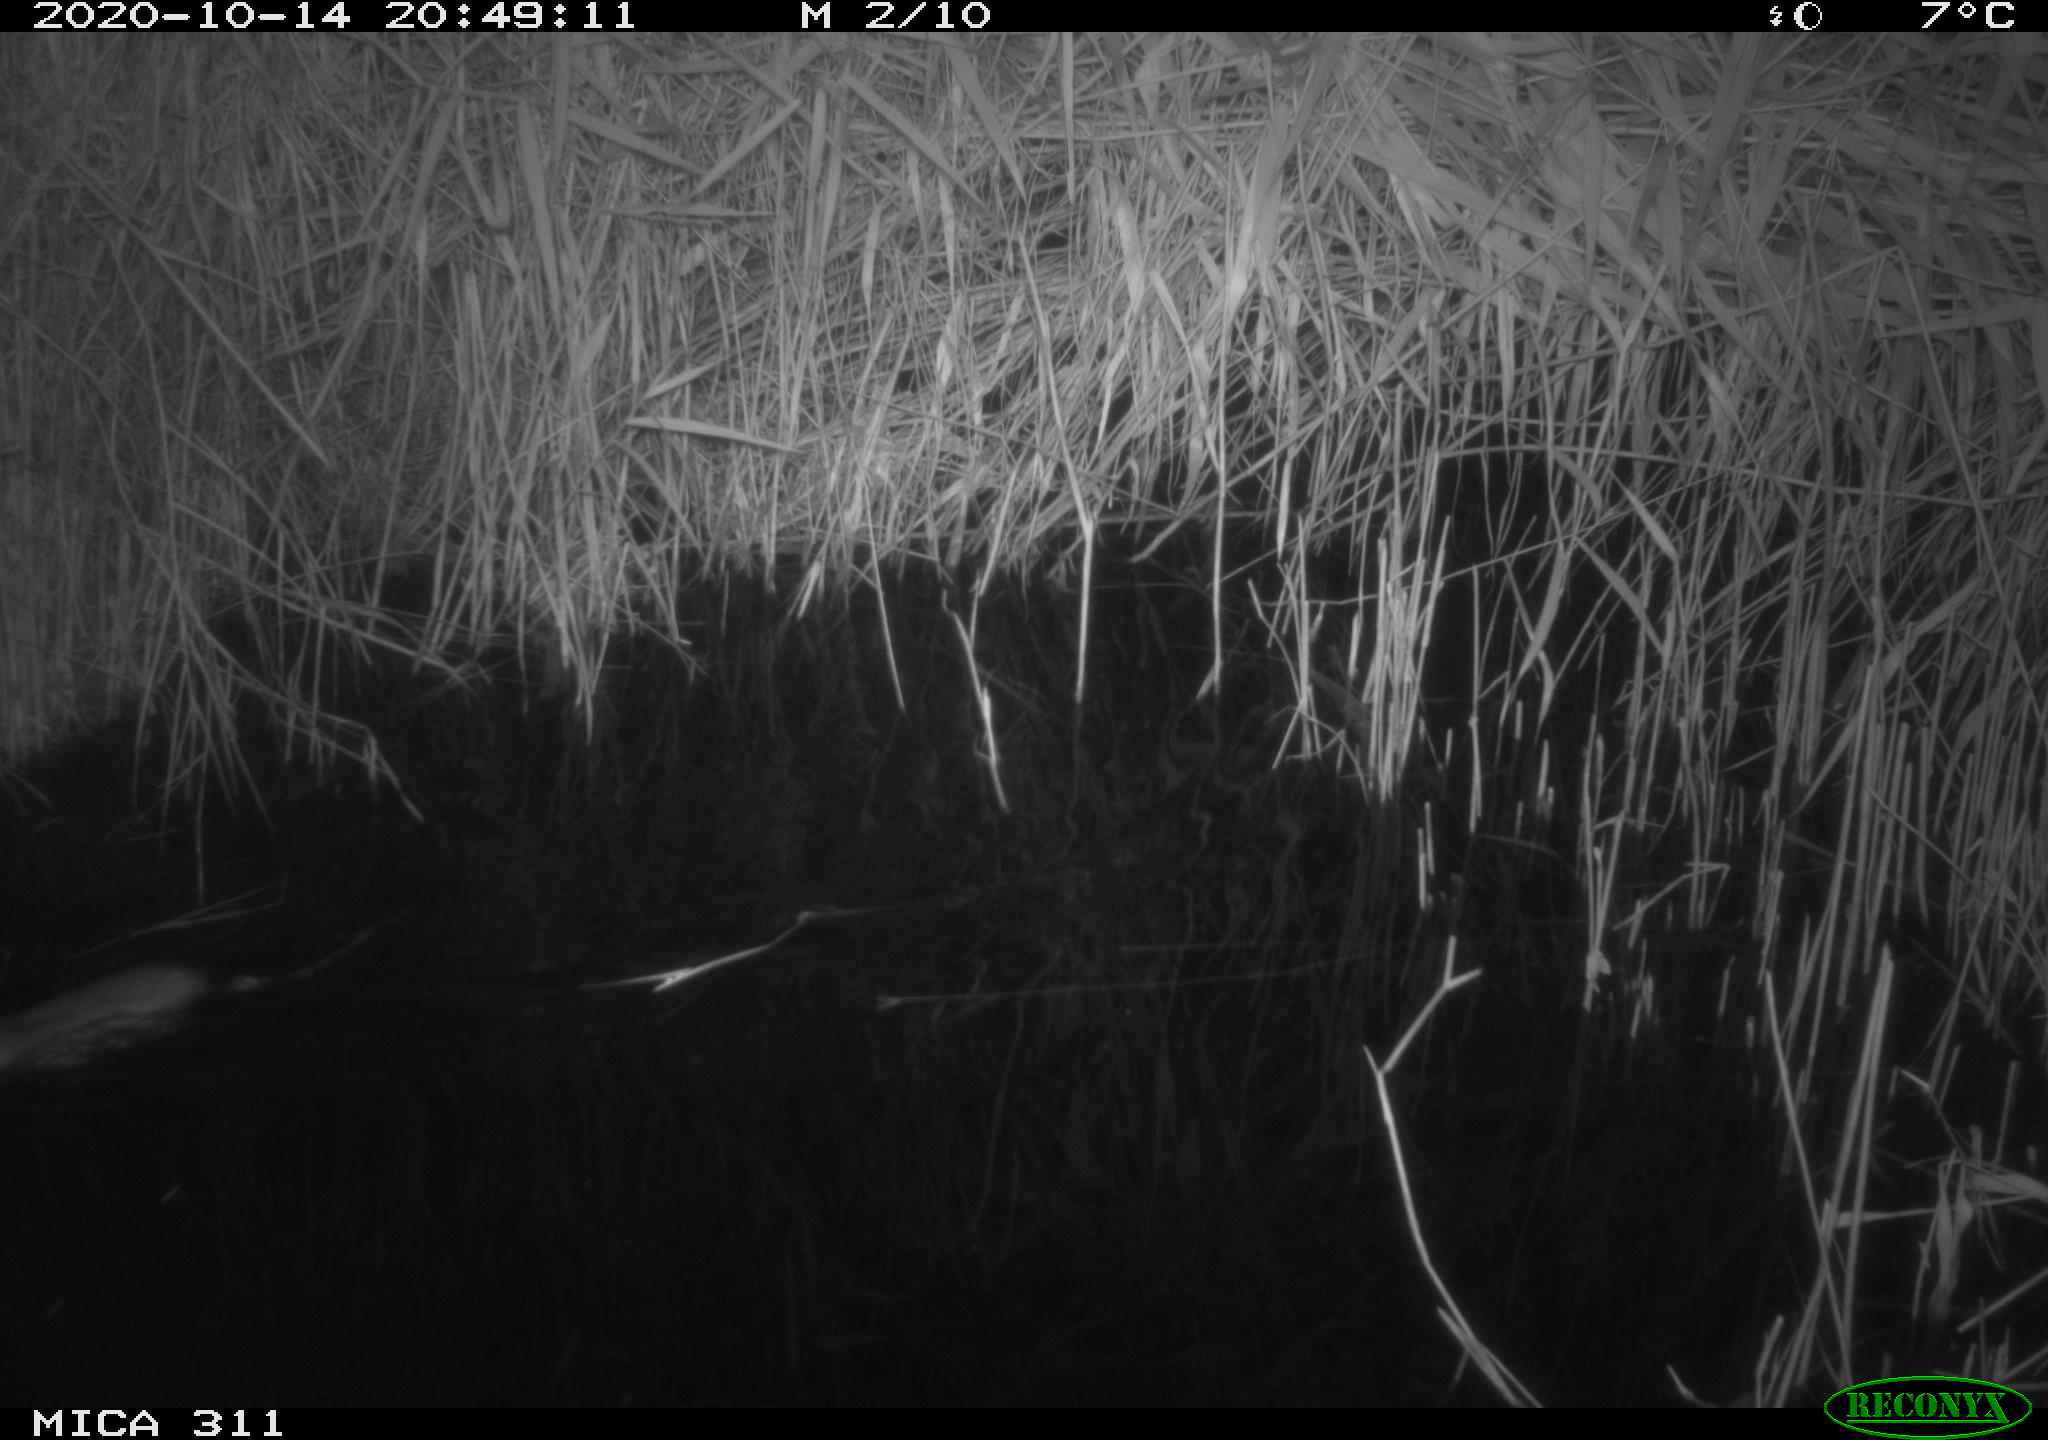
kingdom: Animalia
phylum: Chordata
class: Mammalia
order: Rodentia
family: Muridae
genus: Rattus
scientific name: Rattus norvegicus
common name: Brown rat
